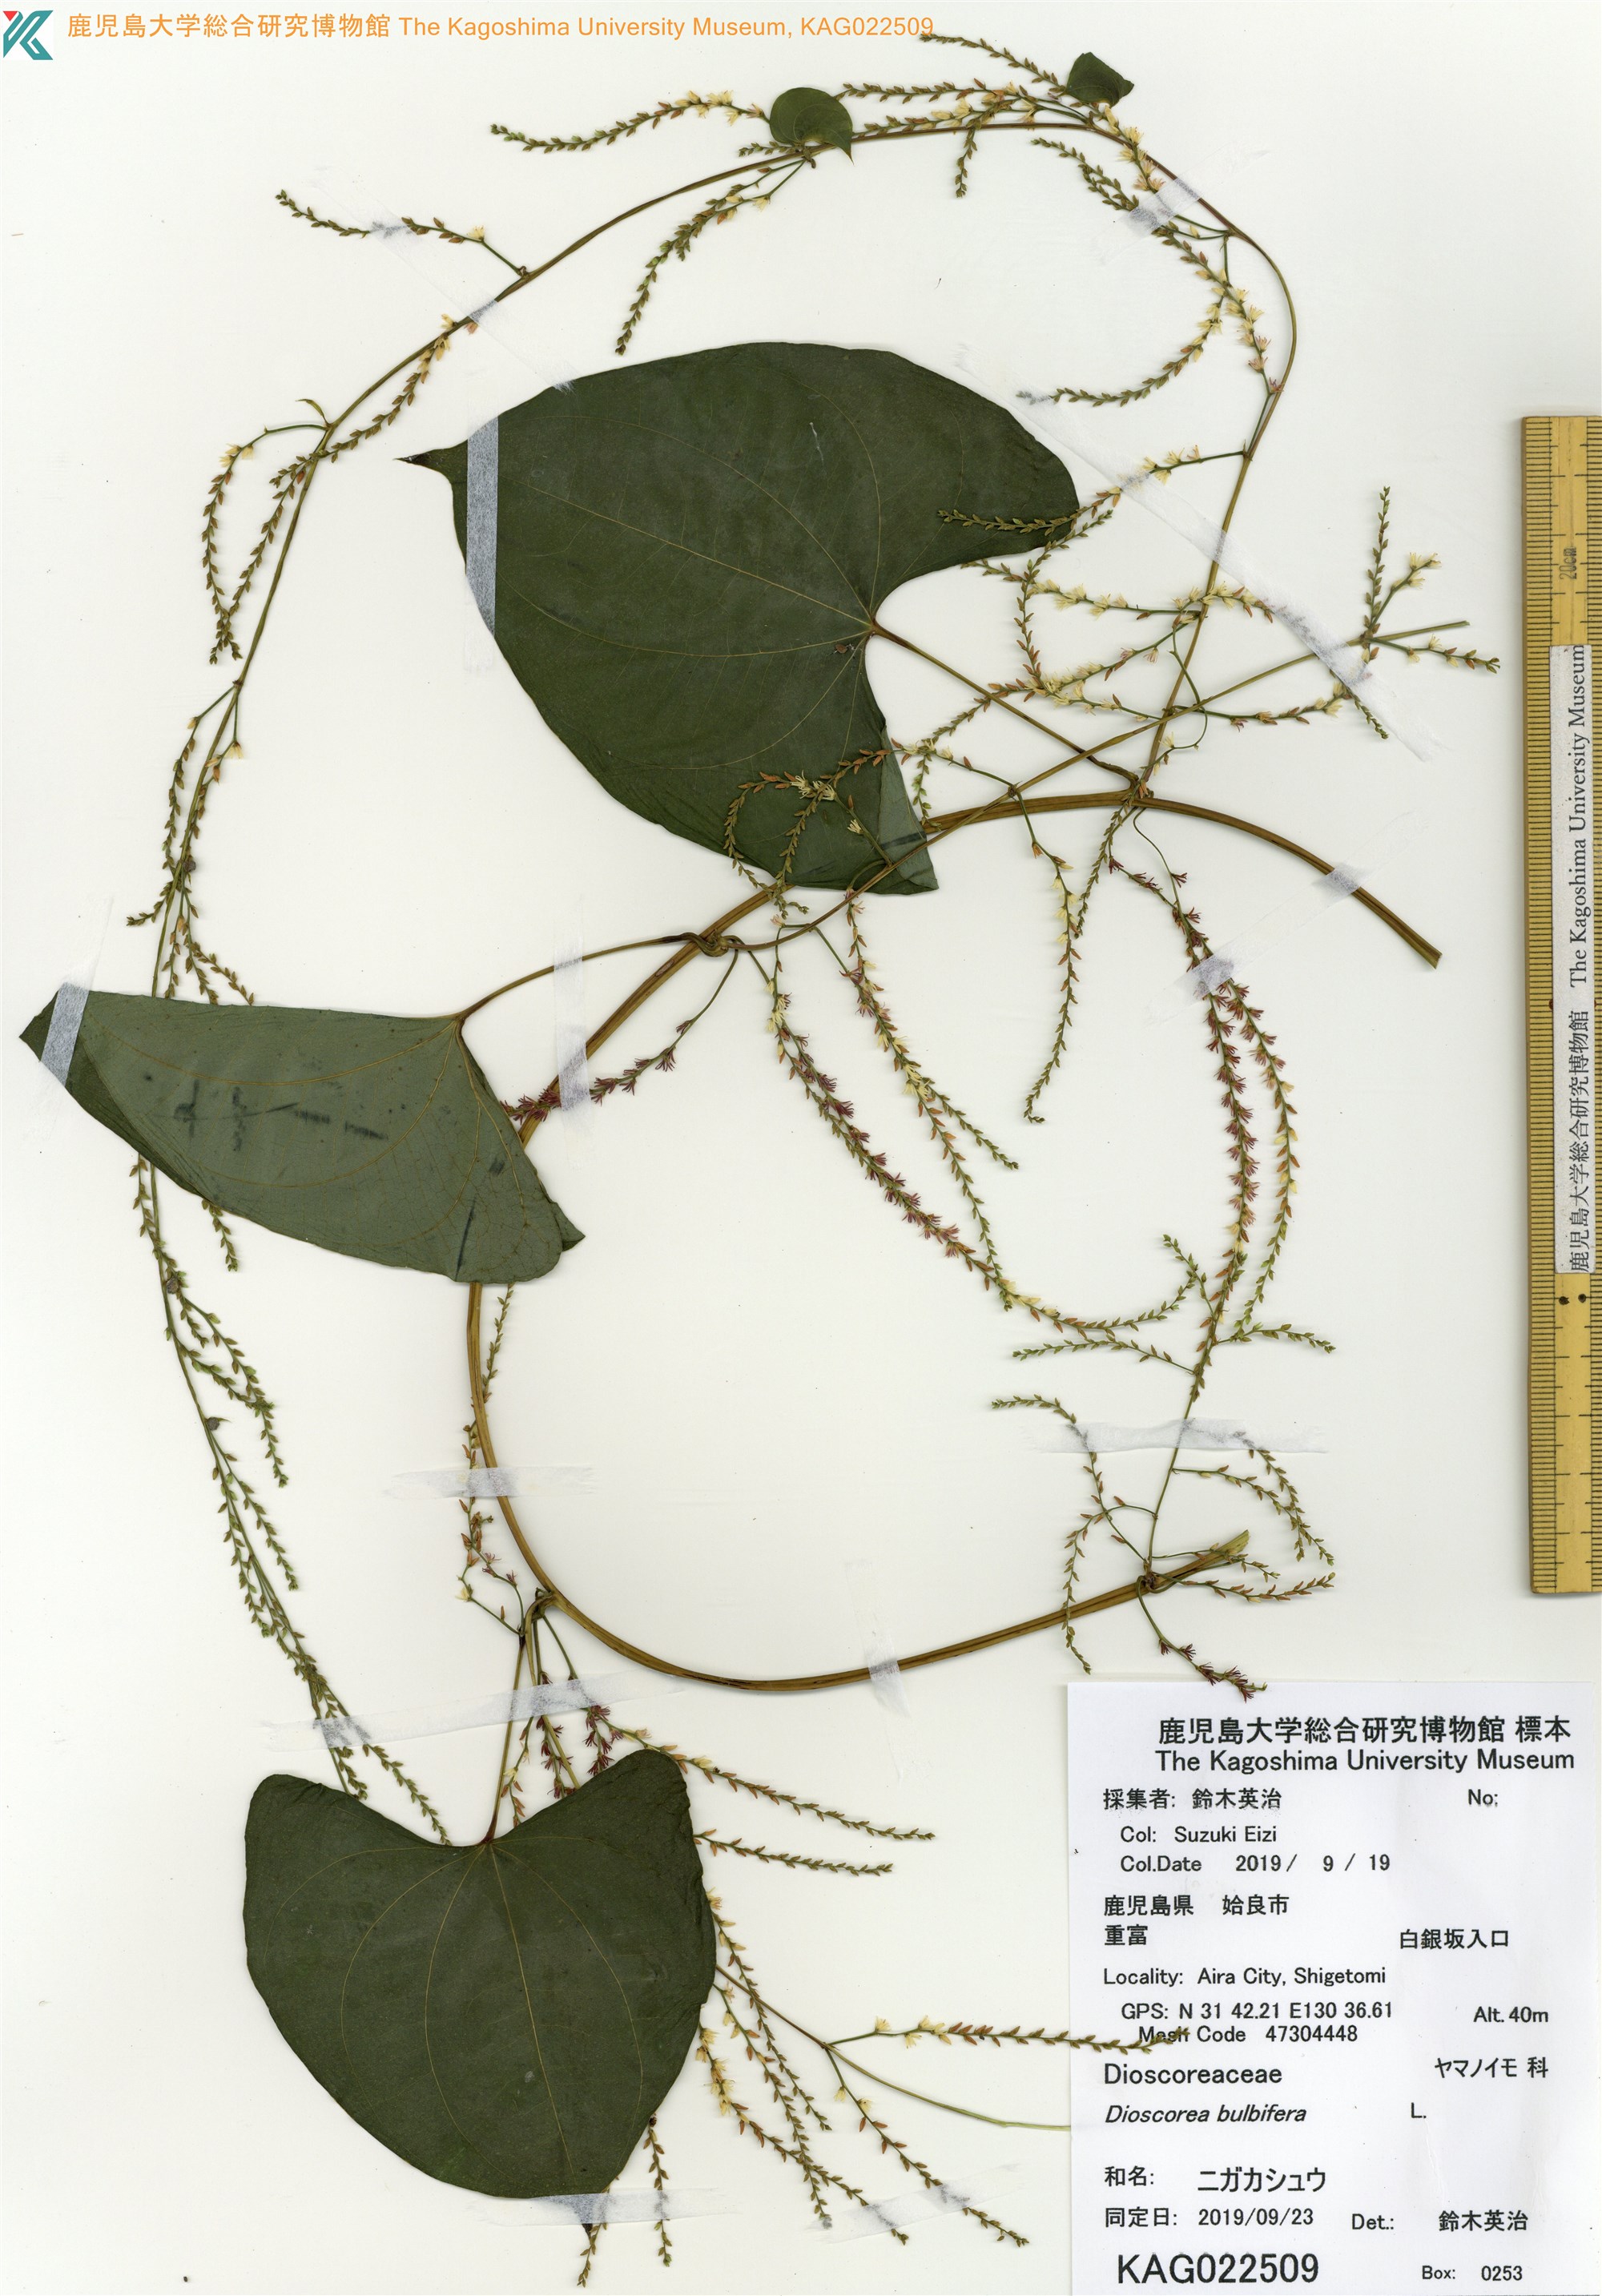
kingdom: Plantae
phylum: Tracheophyta
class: Liliopsida
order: Dioscoreales
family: Dioscoreaceae
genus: Dioscorea
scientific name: Dioscorea bulbifera
